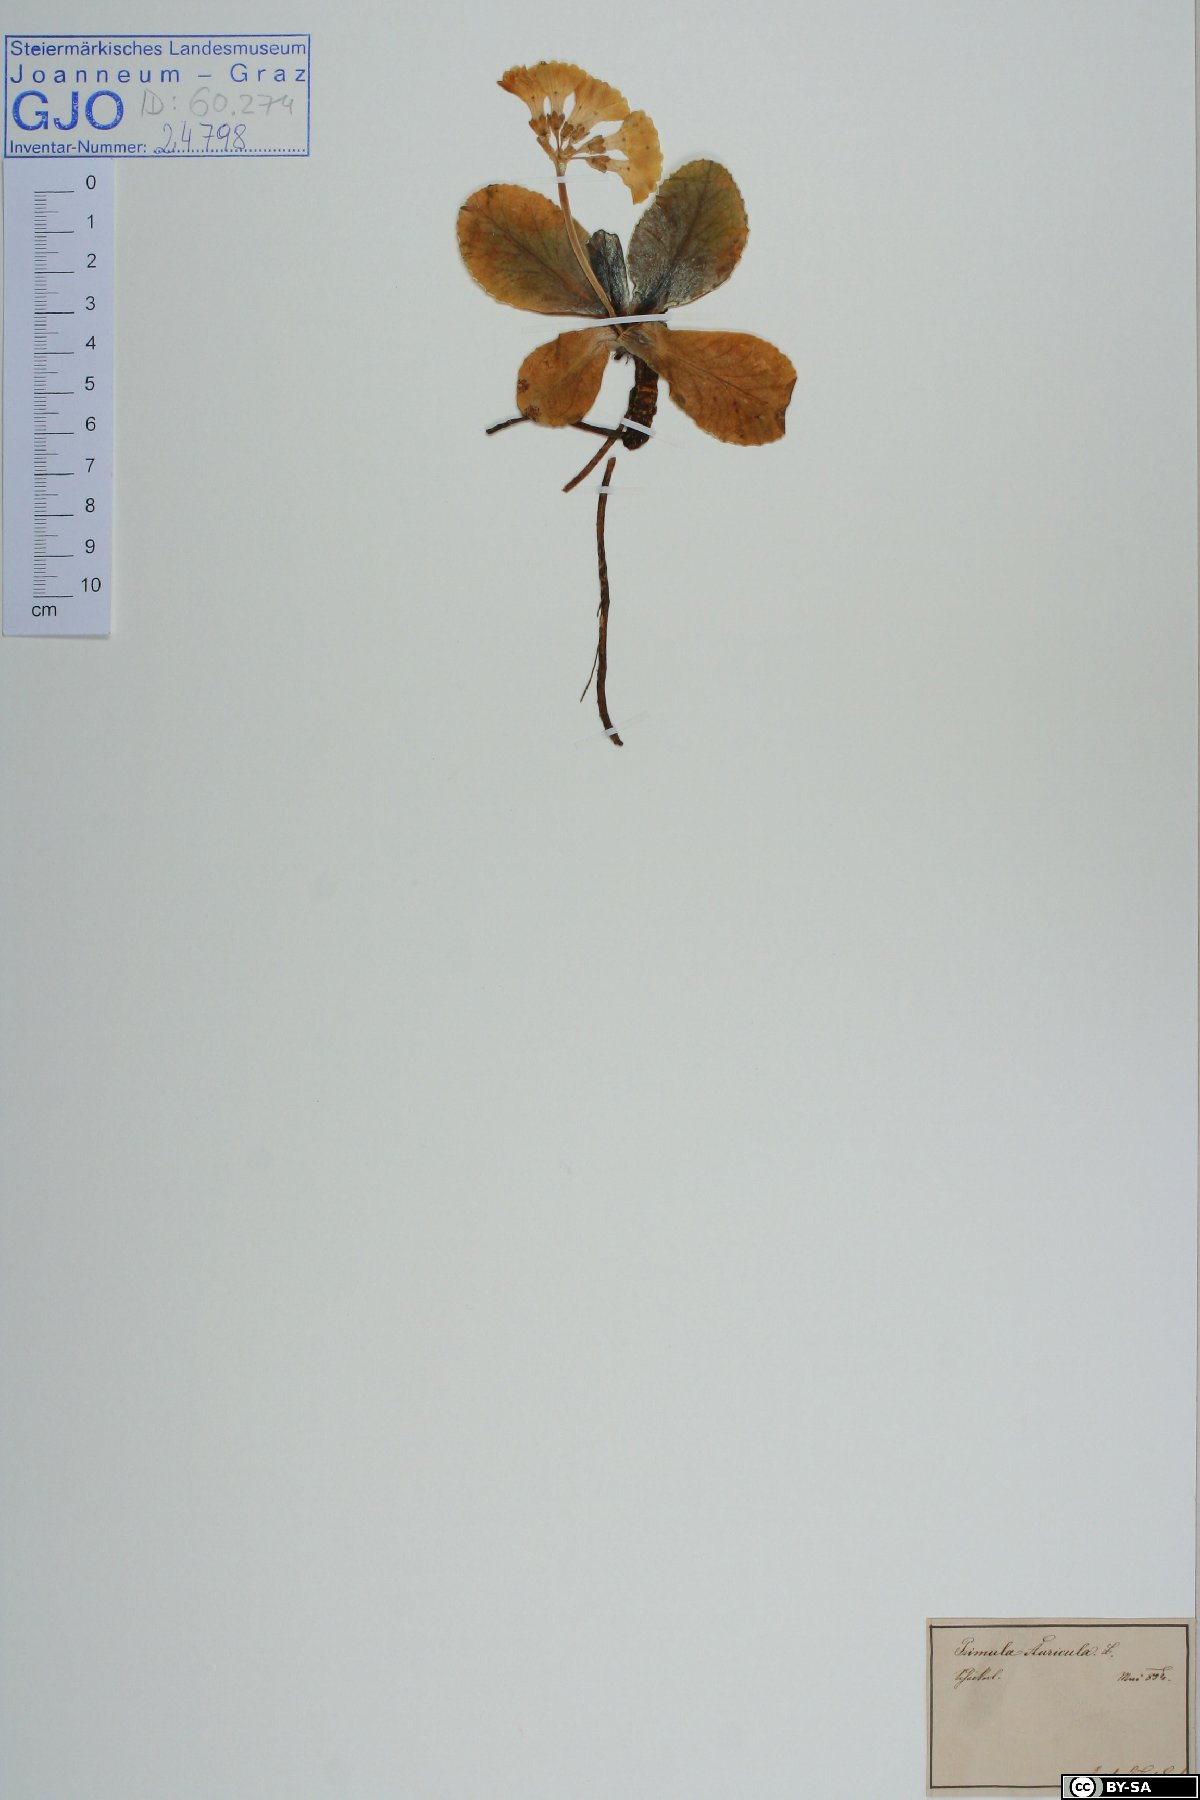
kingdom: Plantae
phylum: Tracheophyta
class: Magnoliopsida
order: Ericales
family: Primulaceae
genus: Primula
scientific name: Primula auricula
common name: Auricula
